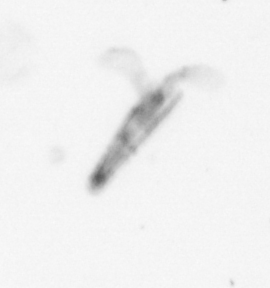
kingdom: Animalia
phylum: Mollusca
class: Gastropoda
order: Pteropoda
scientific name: Pteropoda
